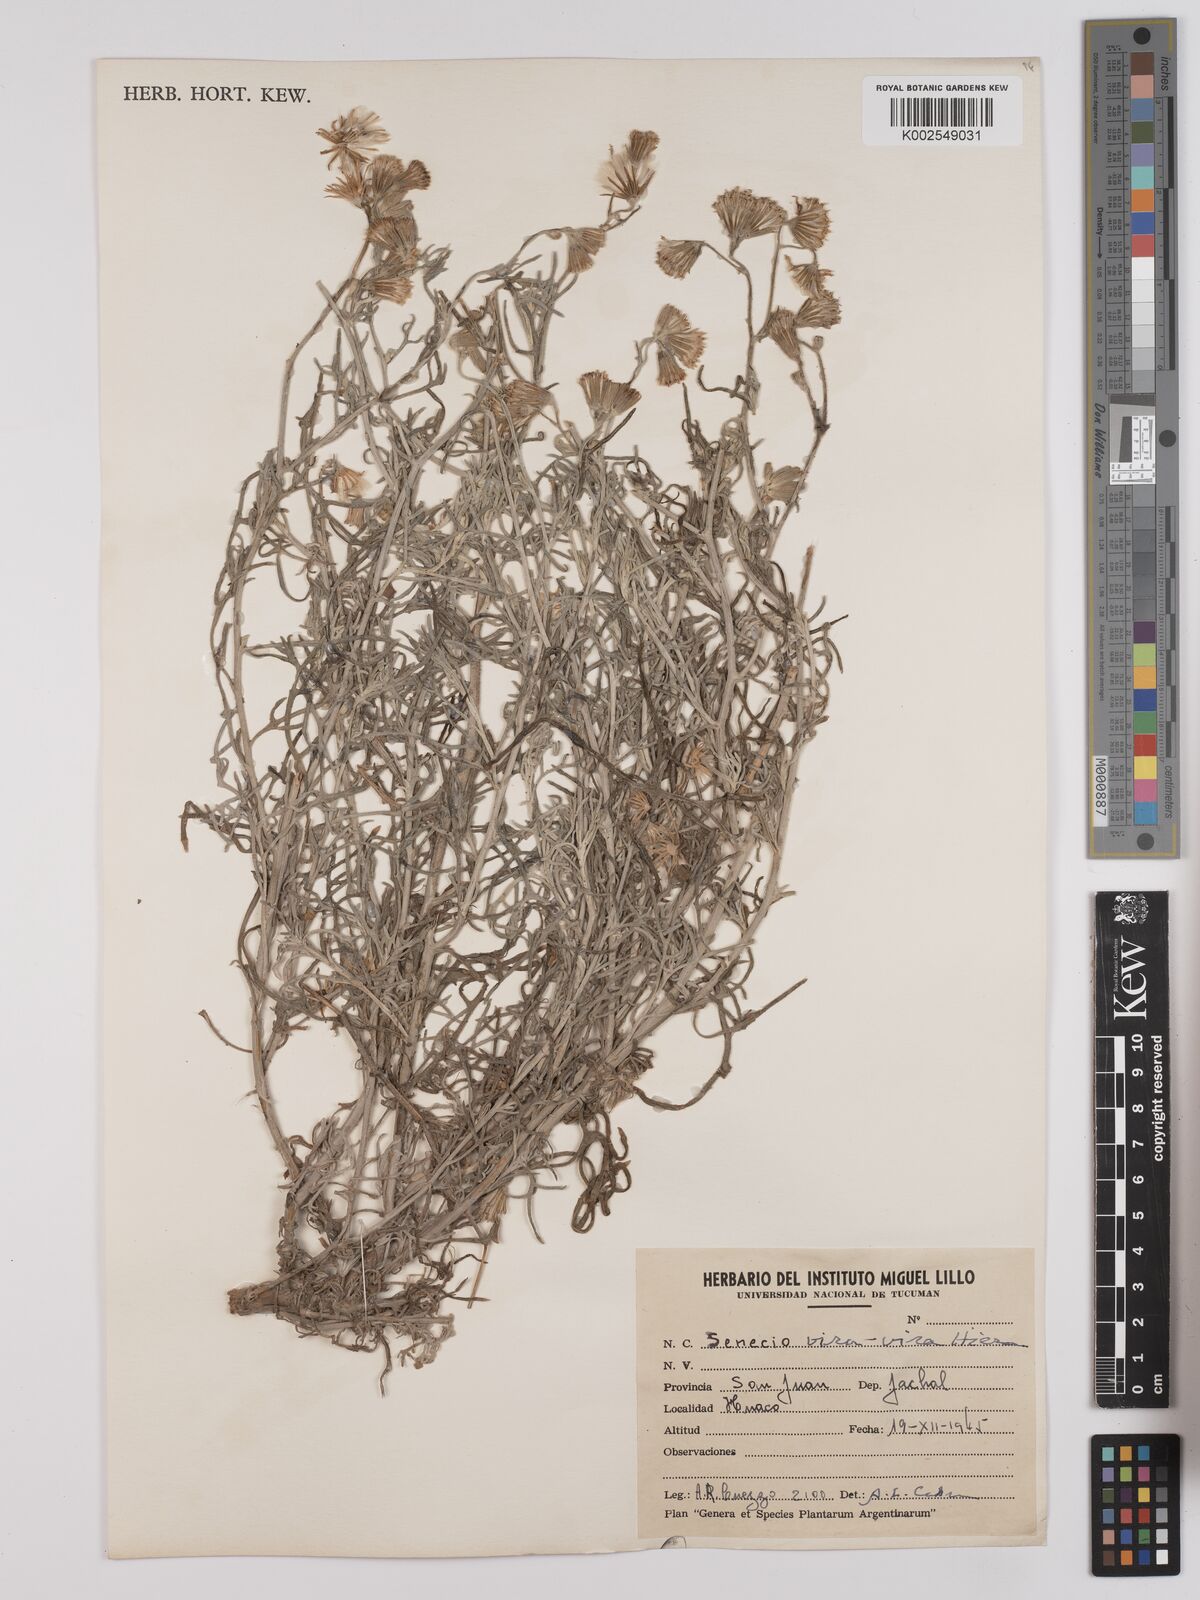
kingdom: Plantae
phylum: Tracheophyta
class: Magnoliopsida
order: Asterales
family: Asteraceae
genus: Senecio
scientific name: Senecio leucostachys
